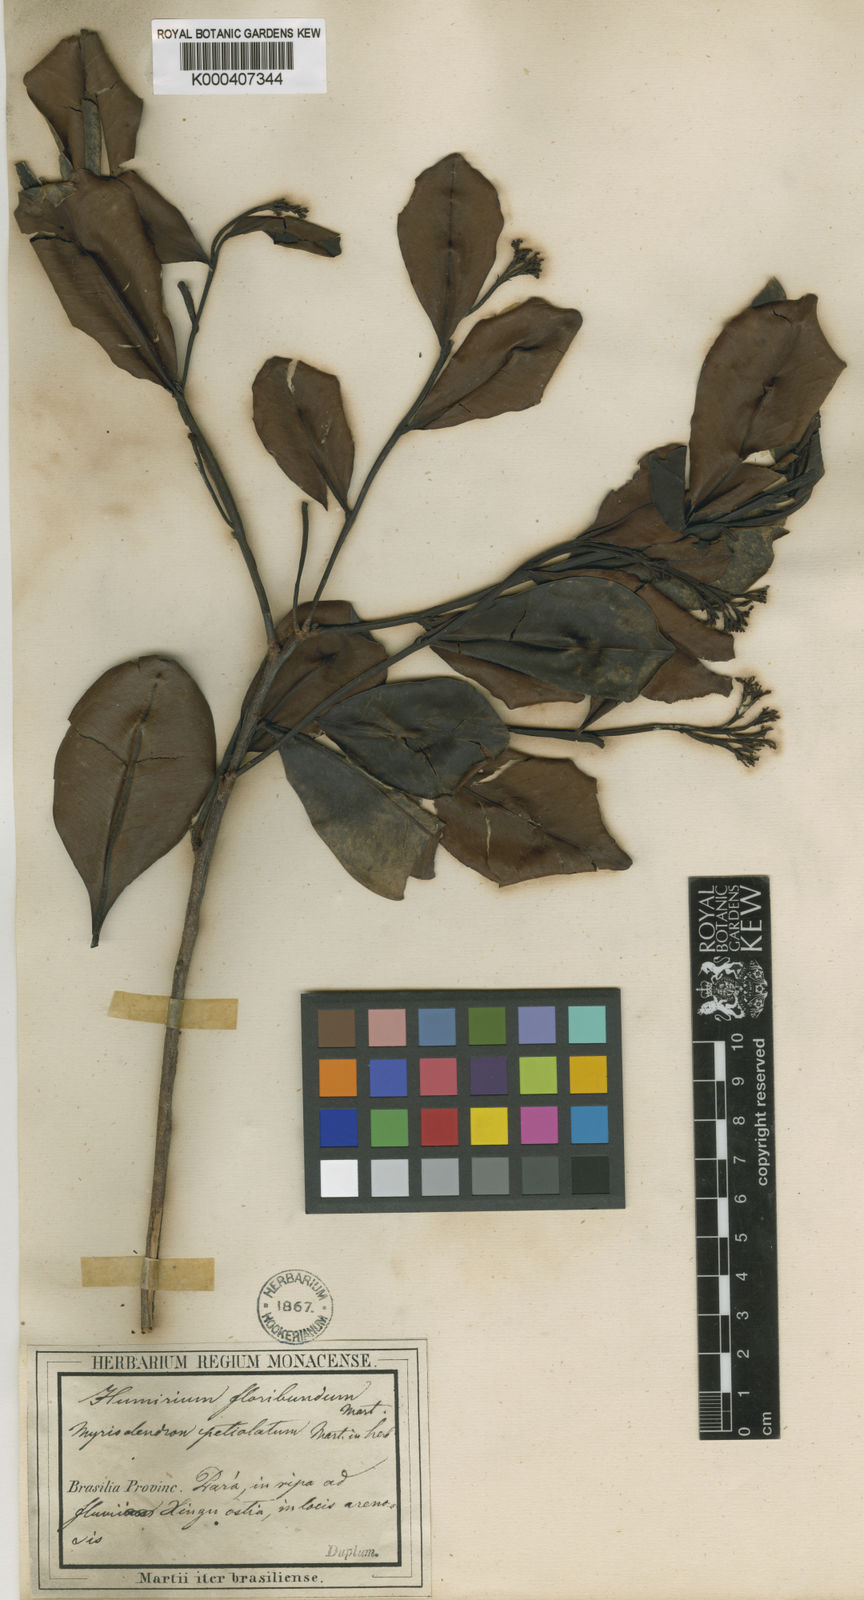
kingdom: Plantae
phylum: Tracheophyta
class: Magnoliopsida
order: Malpighiales
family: Humiriaceae
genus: Humiria
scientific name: Humiria balsamifera
